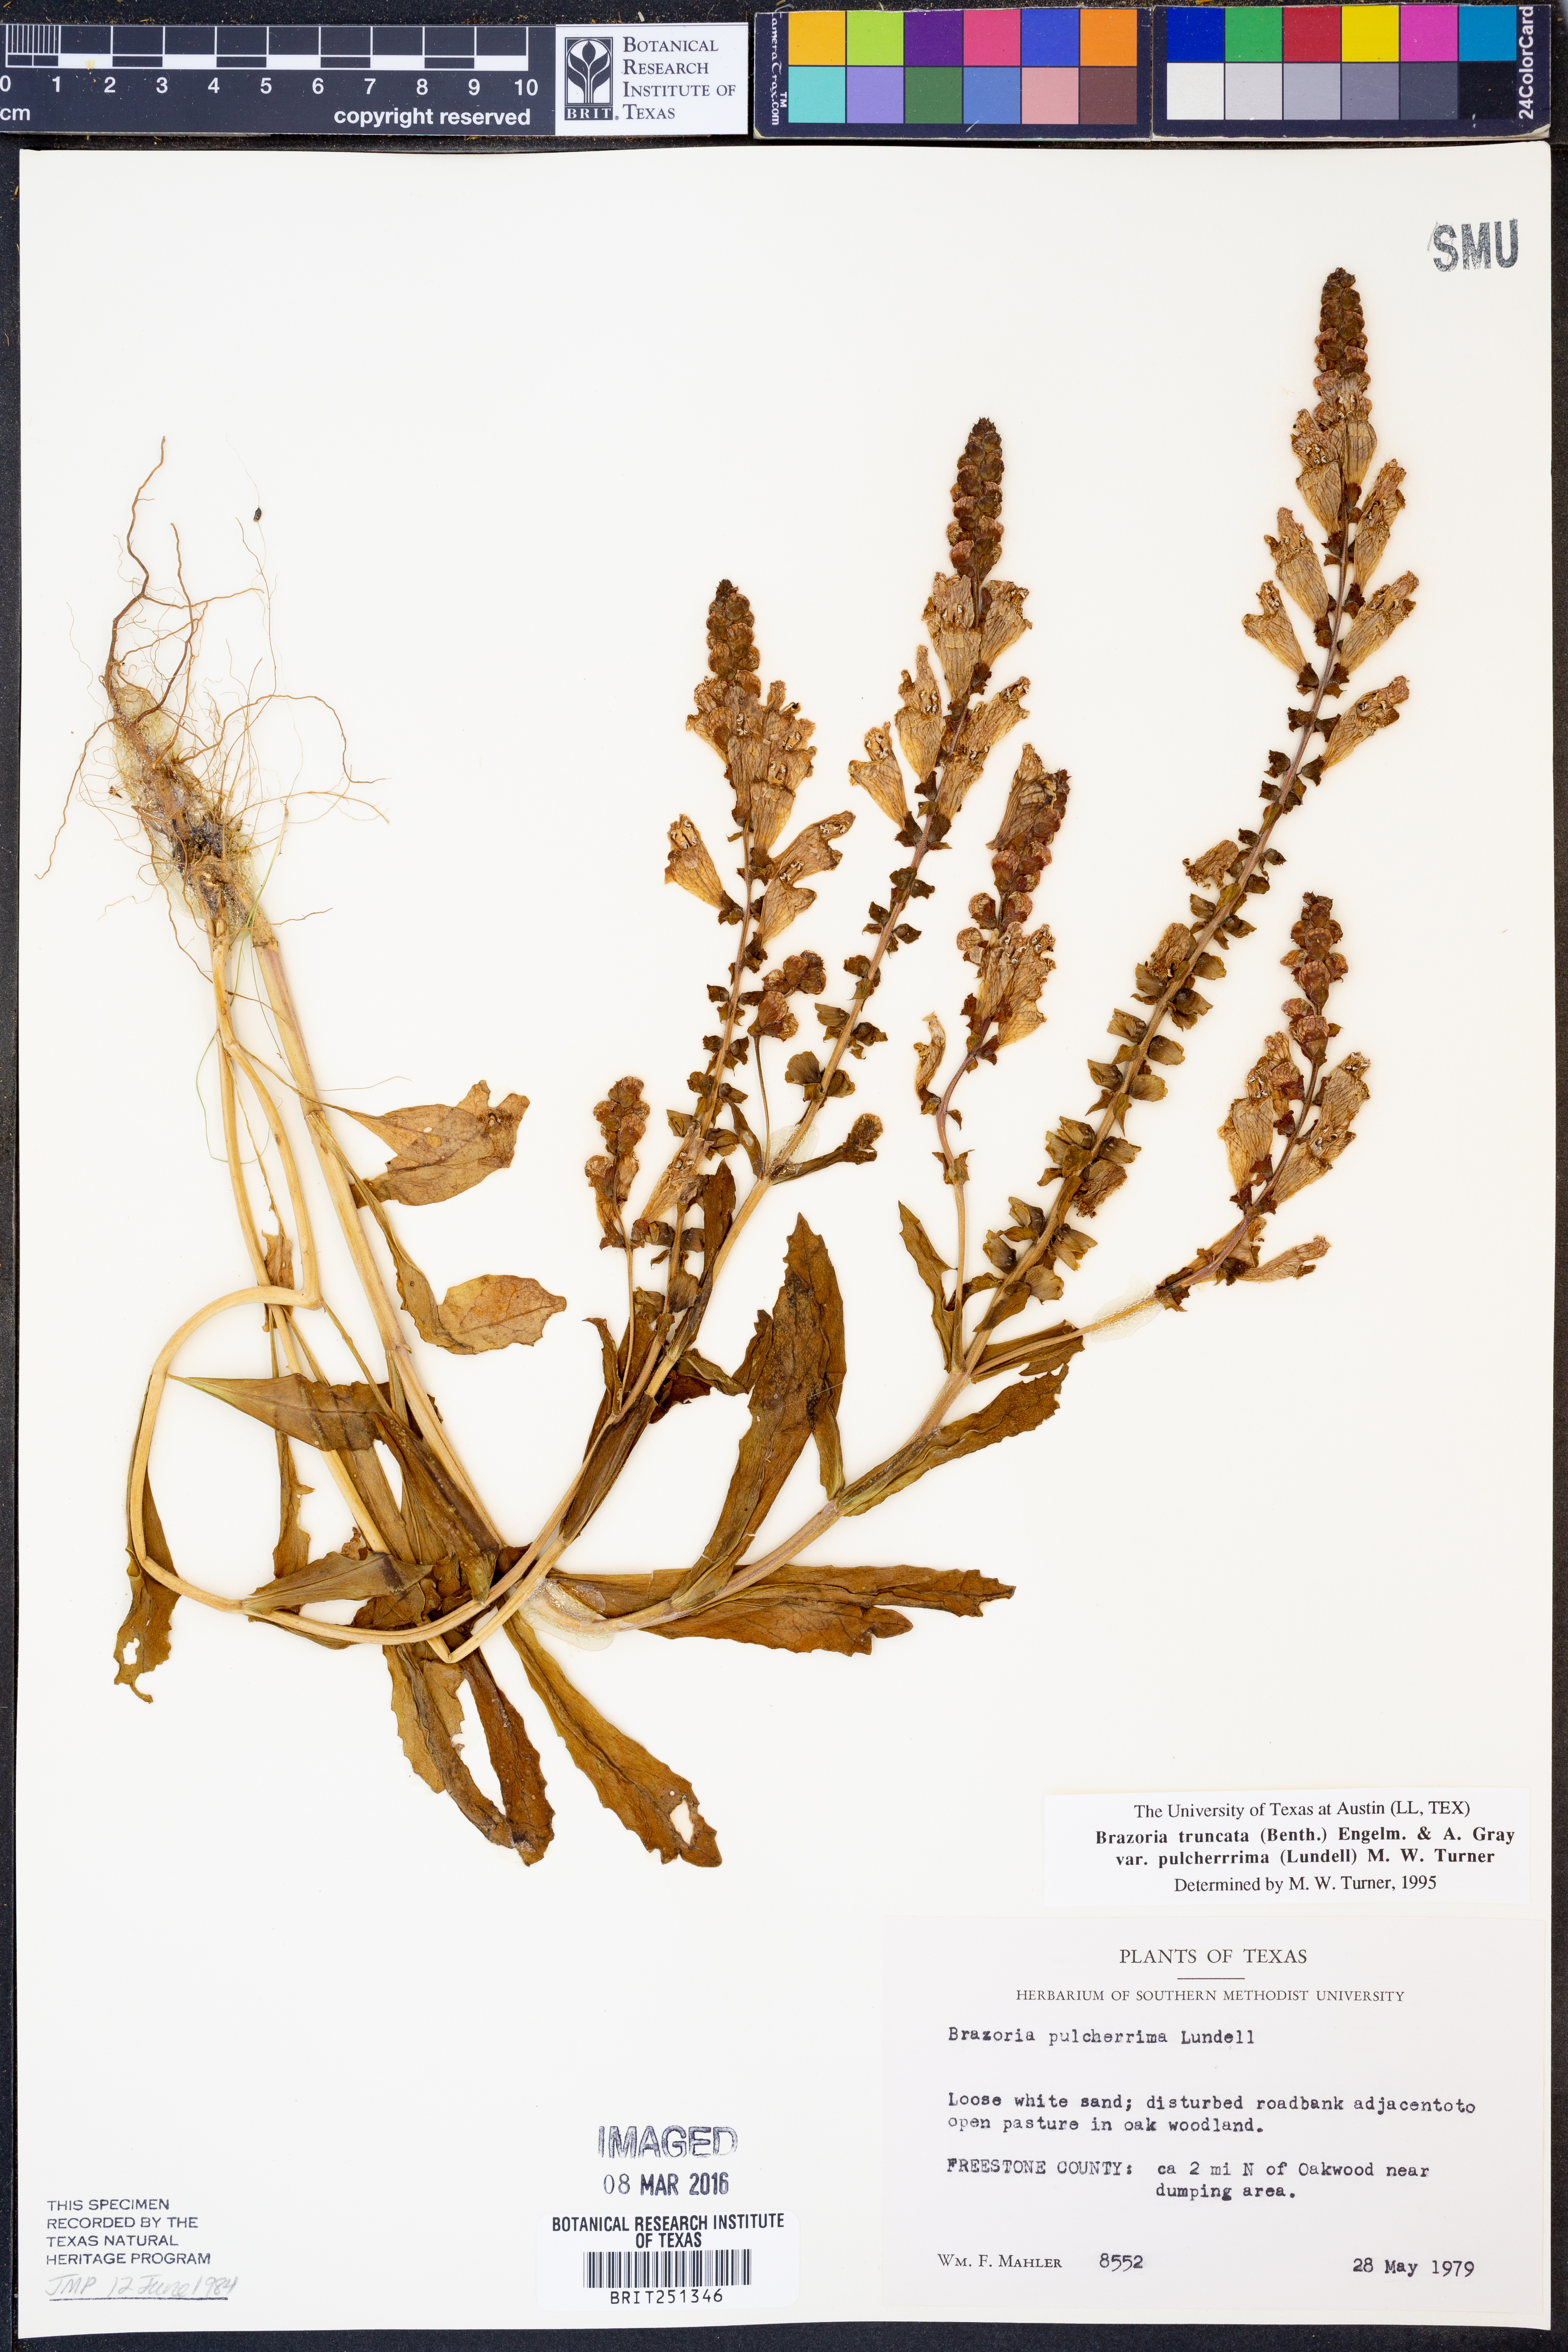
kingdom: Plantae
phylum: Tracheophyta
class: Magnoliopsida
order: Lamiales
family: Lamiaceae
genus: Brazoria
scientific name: Brazoria truncata
